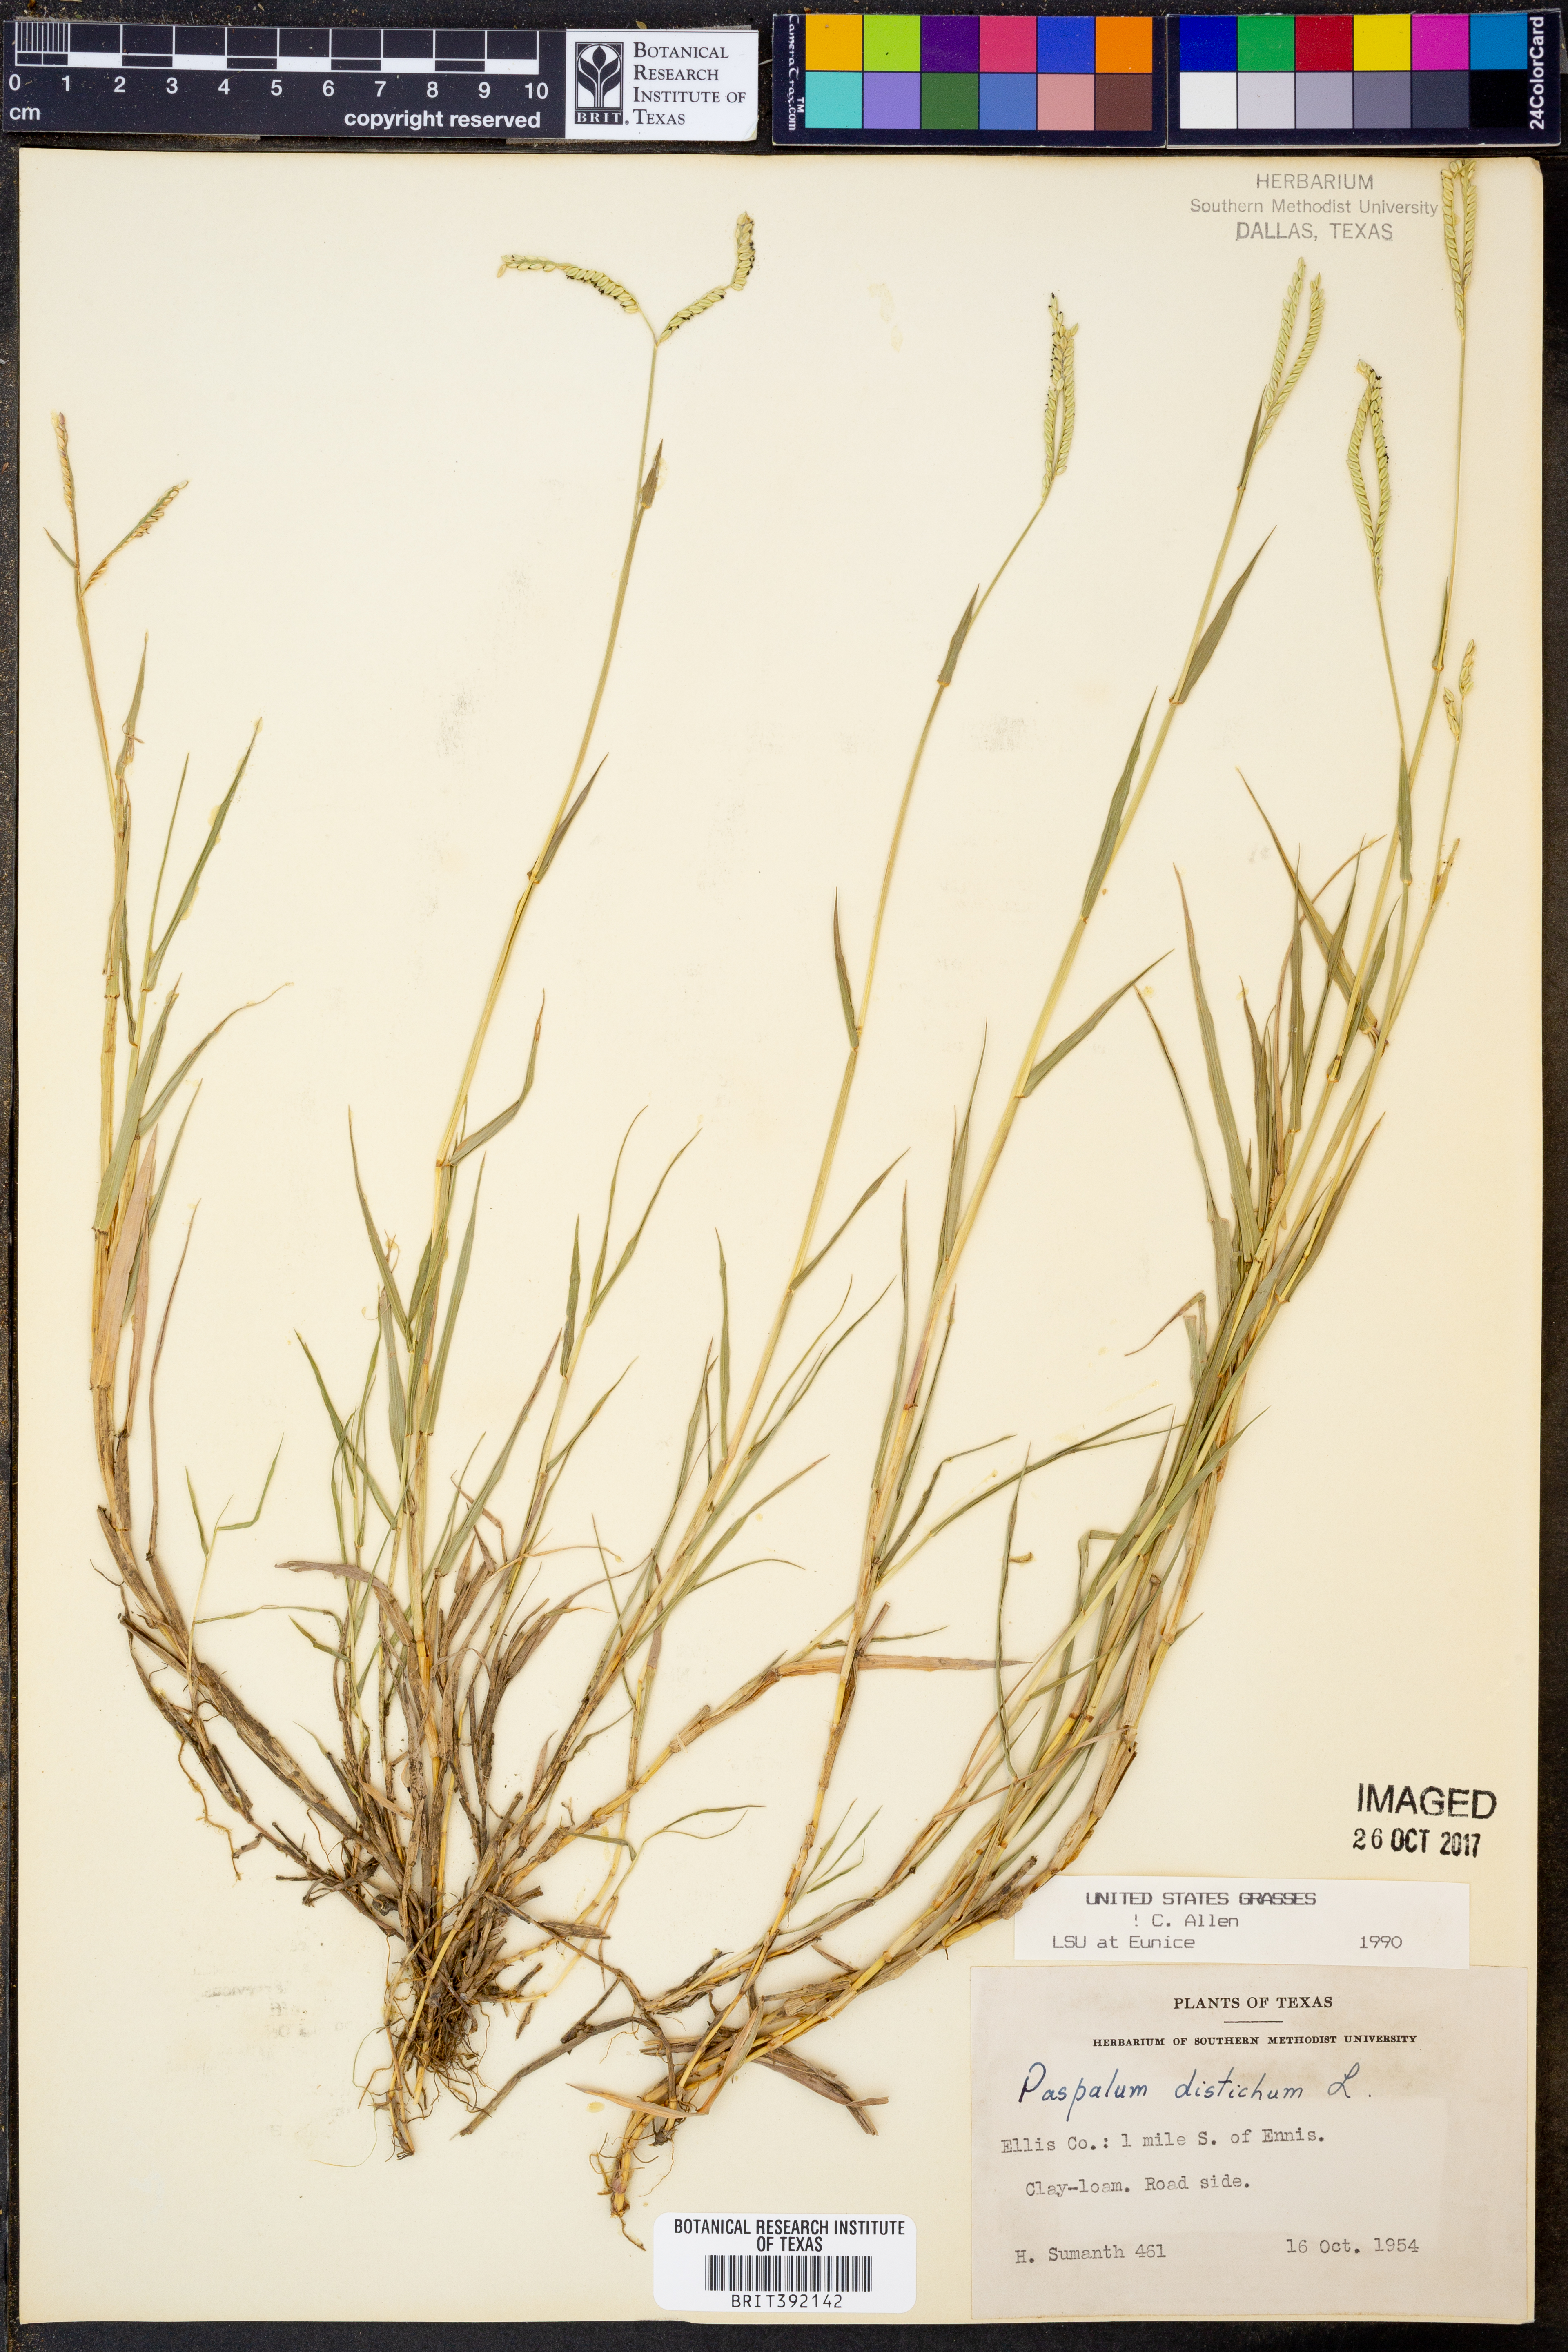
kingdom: Plantae
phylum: Tracheophyta
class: Liliopsida
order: Poales
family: Poaceae
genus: Paspalum
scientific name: Paspalum distichum
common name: Knotgrass
